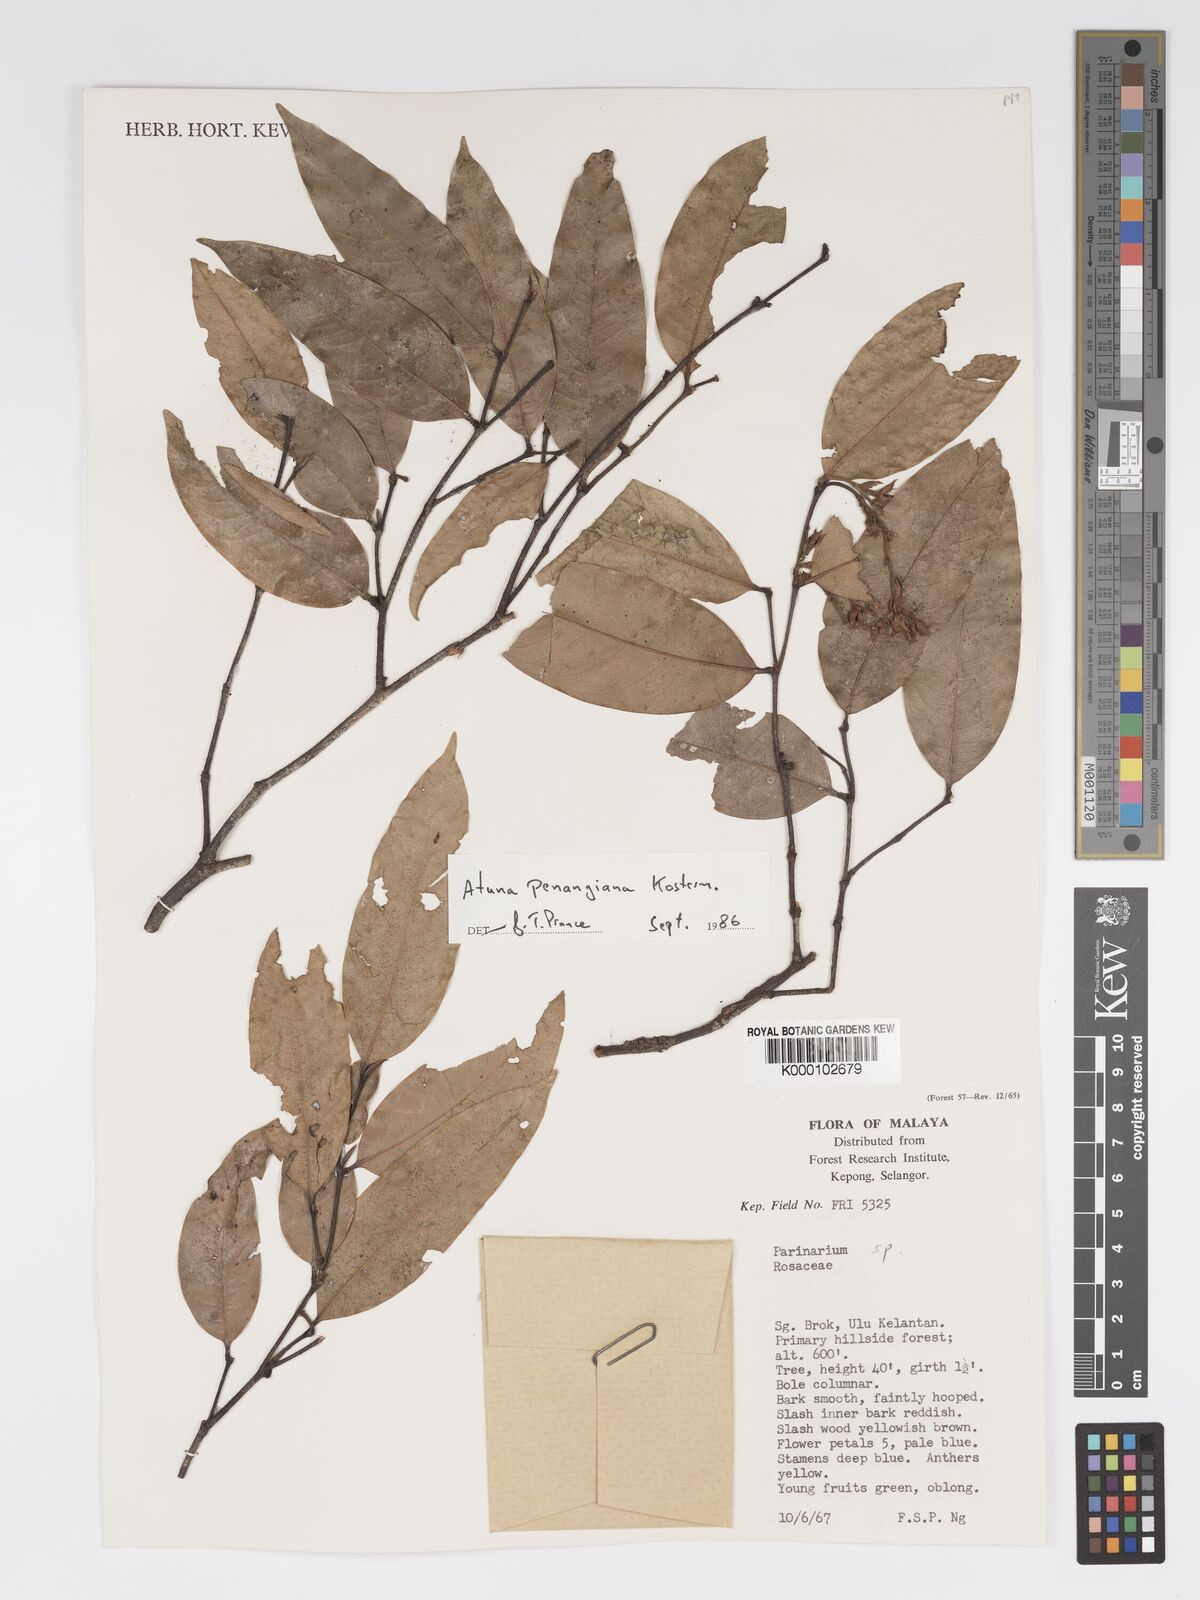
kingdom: Plantae
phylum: Tracheophyta
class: Magnoliopsida
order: Malpighiales
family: Chrysobalanaceae
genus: Atuna
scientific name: Atuna penangiana
